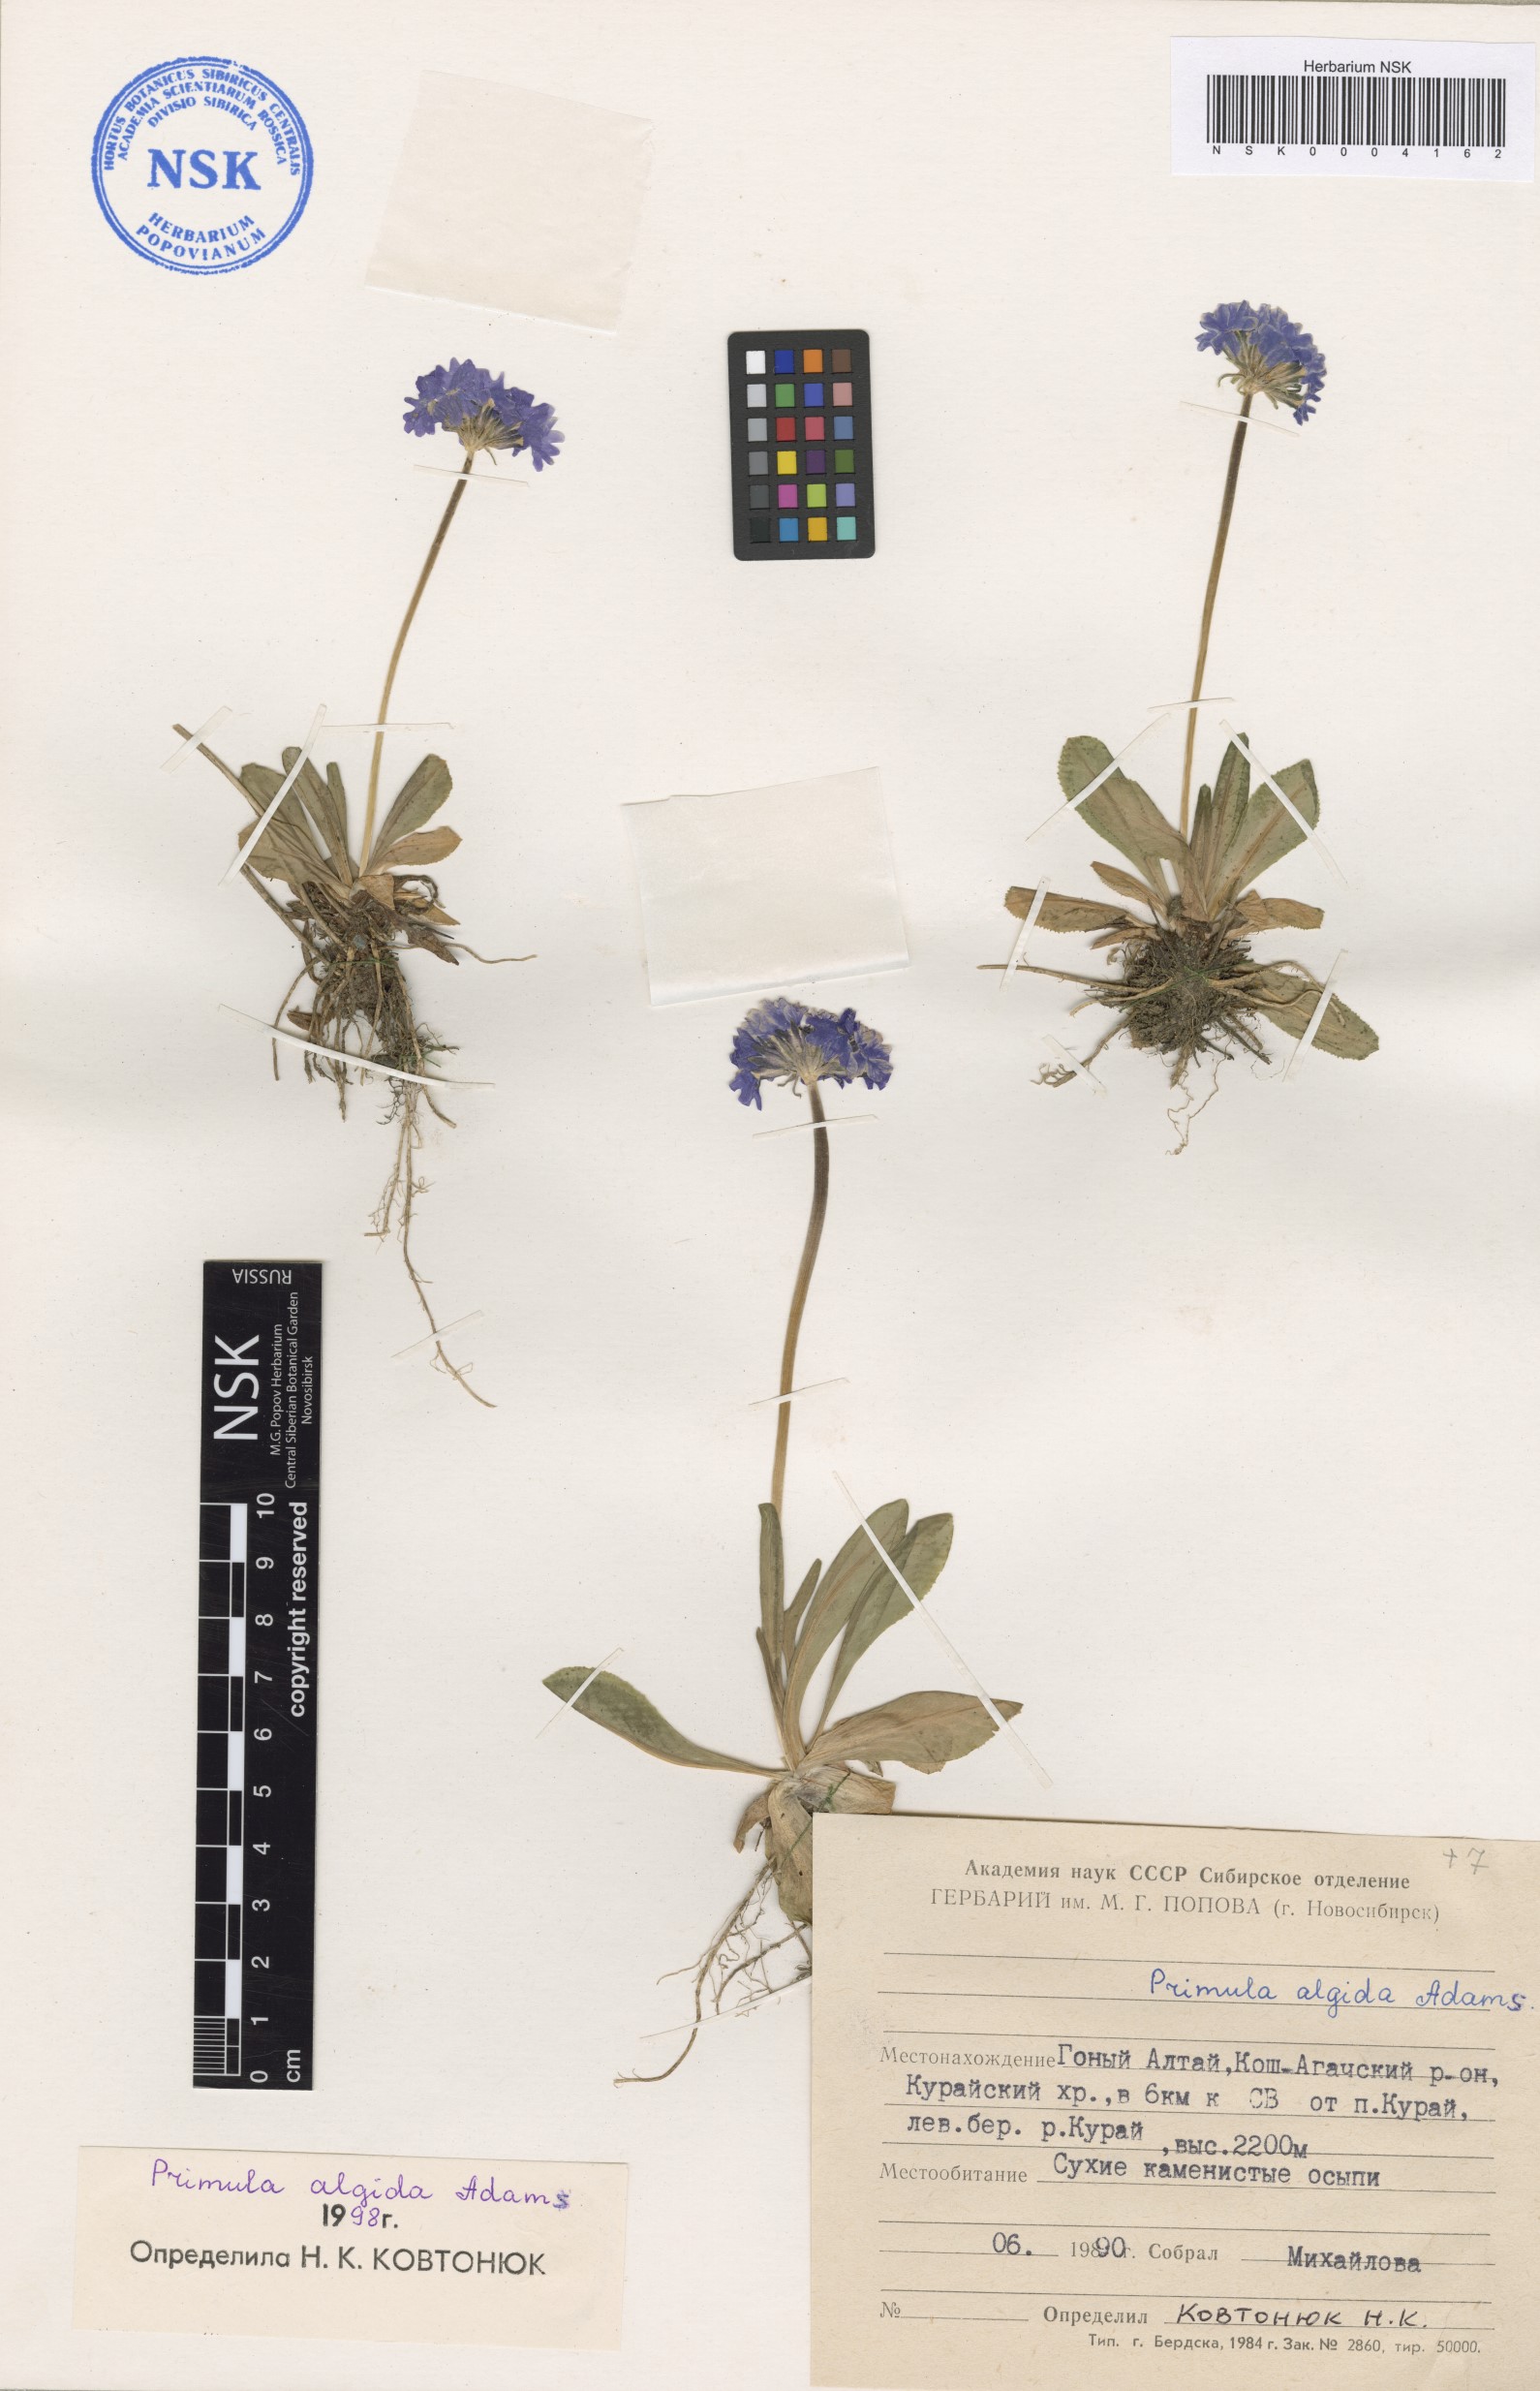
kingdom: Plantae
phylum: Tracheophyta
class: Magnoliopsida
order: Ericales
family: Primulaceae
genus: Primula
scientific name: Primula algida
